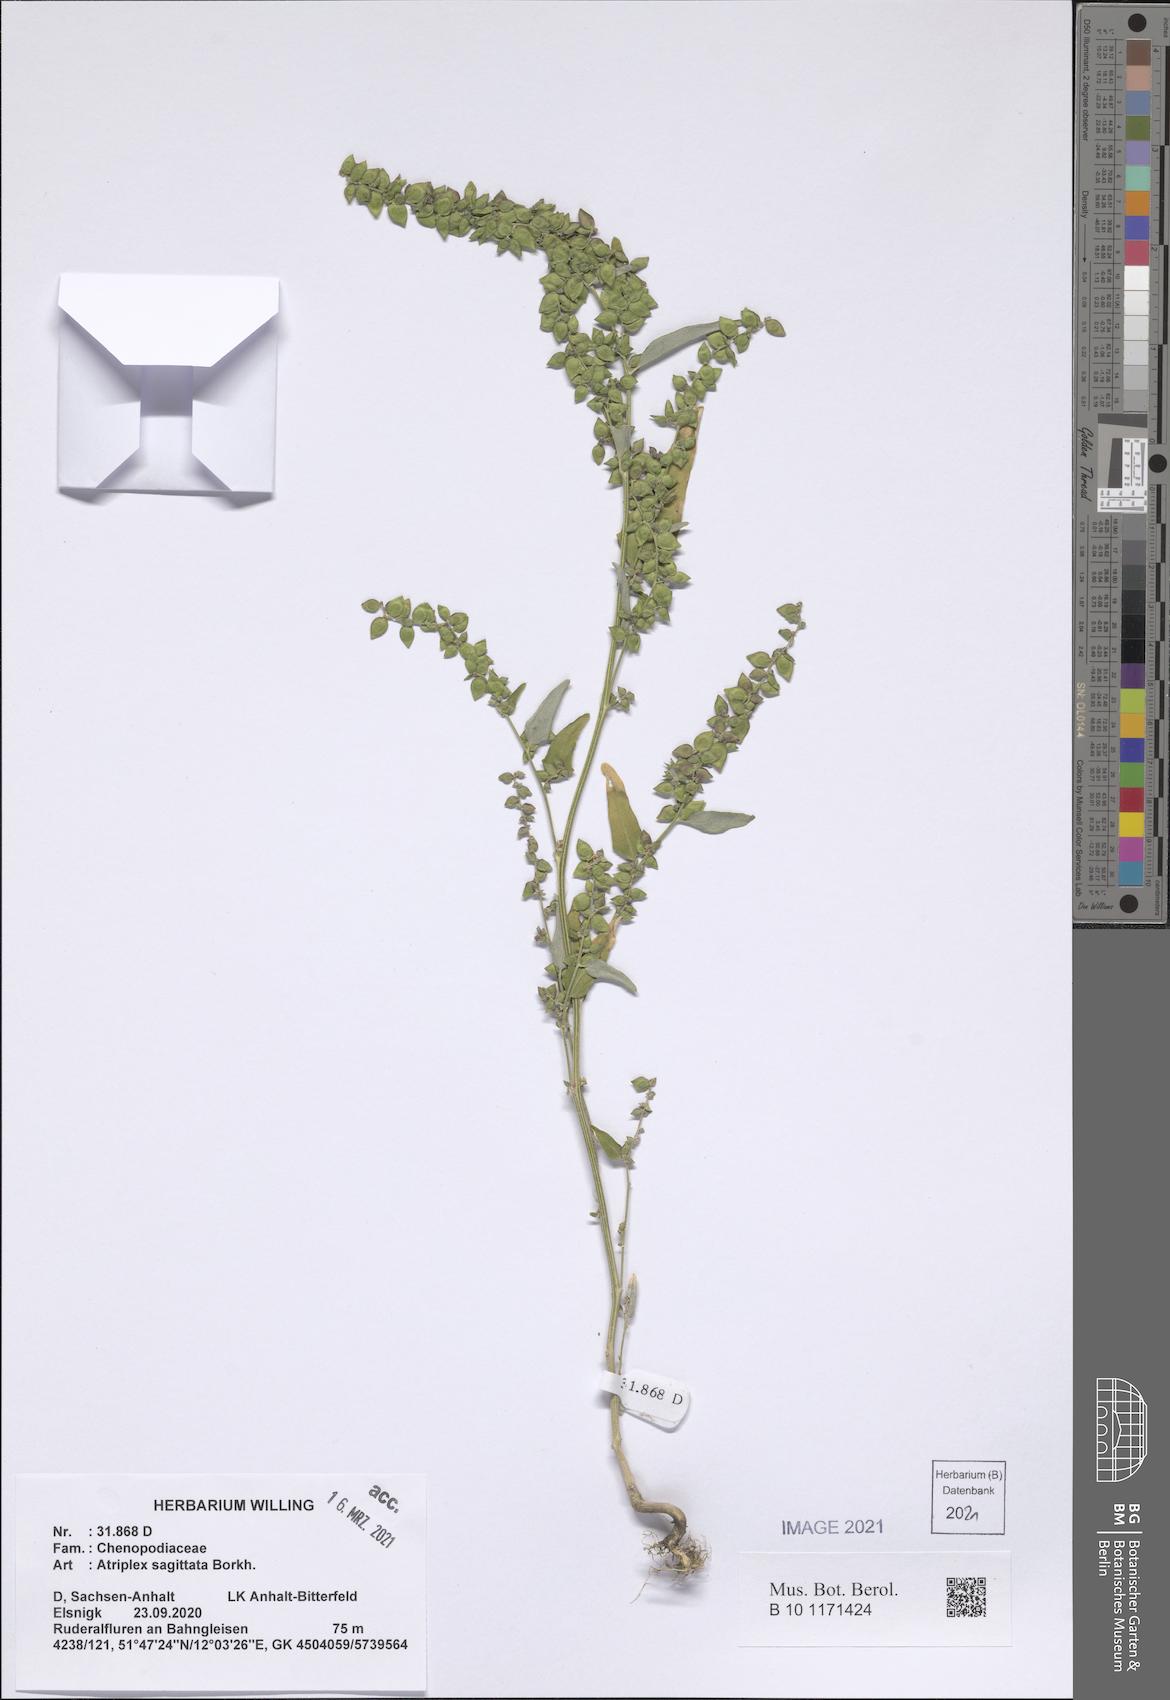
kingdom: Plantae
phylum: Tracheophyta
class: Magnoliopsida
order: Caryophyllales
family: Amaranthaceae
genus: Atriplex
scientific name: Atriplex sagittata
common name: Purple orache
